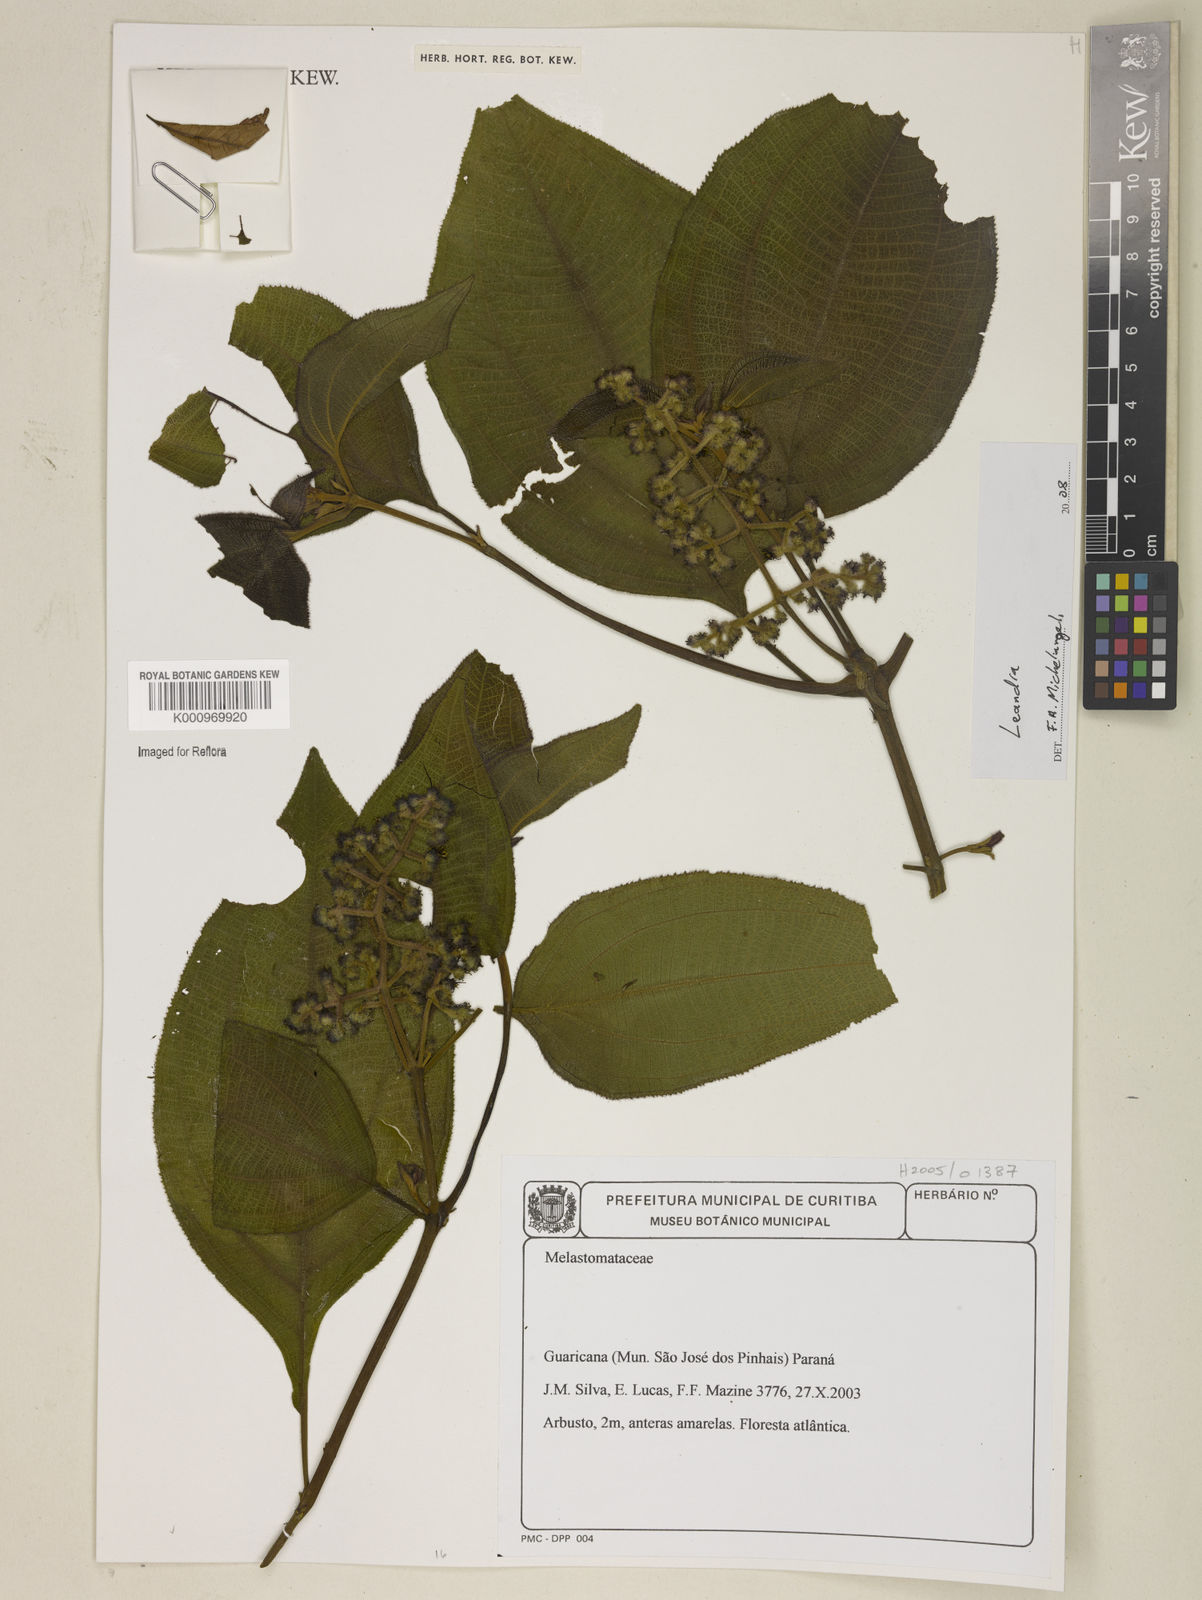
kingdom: Plantae
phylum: Tracheophyta
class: Magnoliopsida
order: Myrtales
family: Melastomataceae
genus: Miconia
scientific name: Miconia
